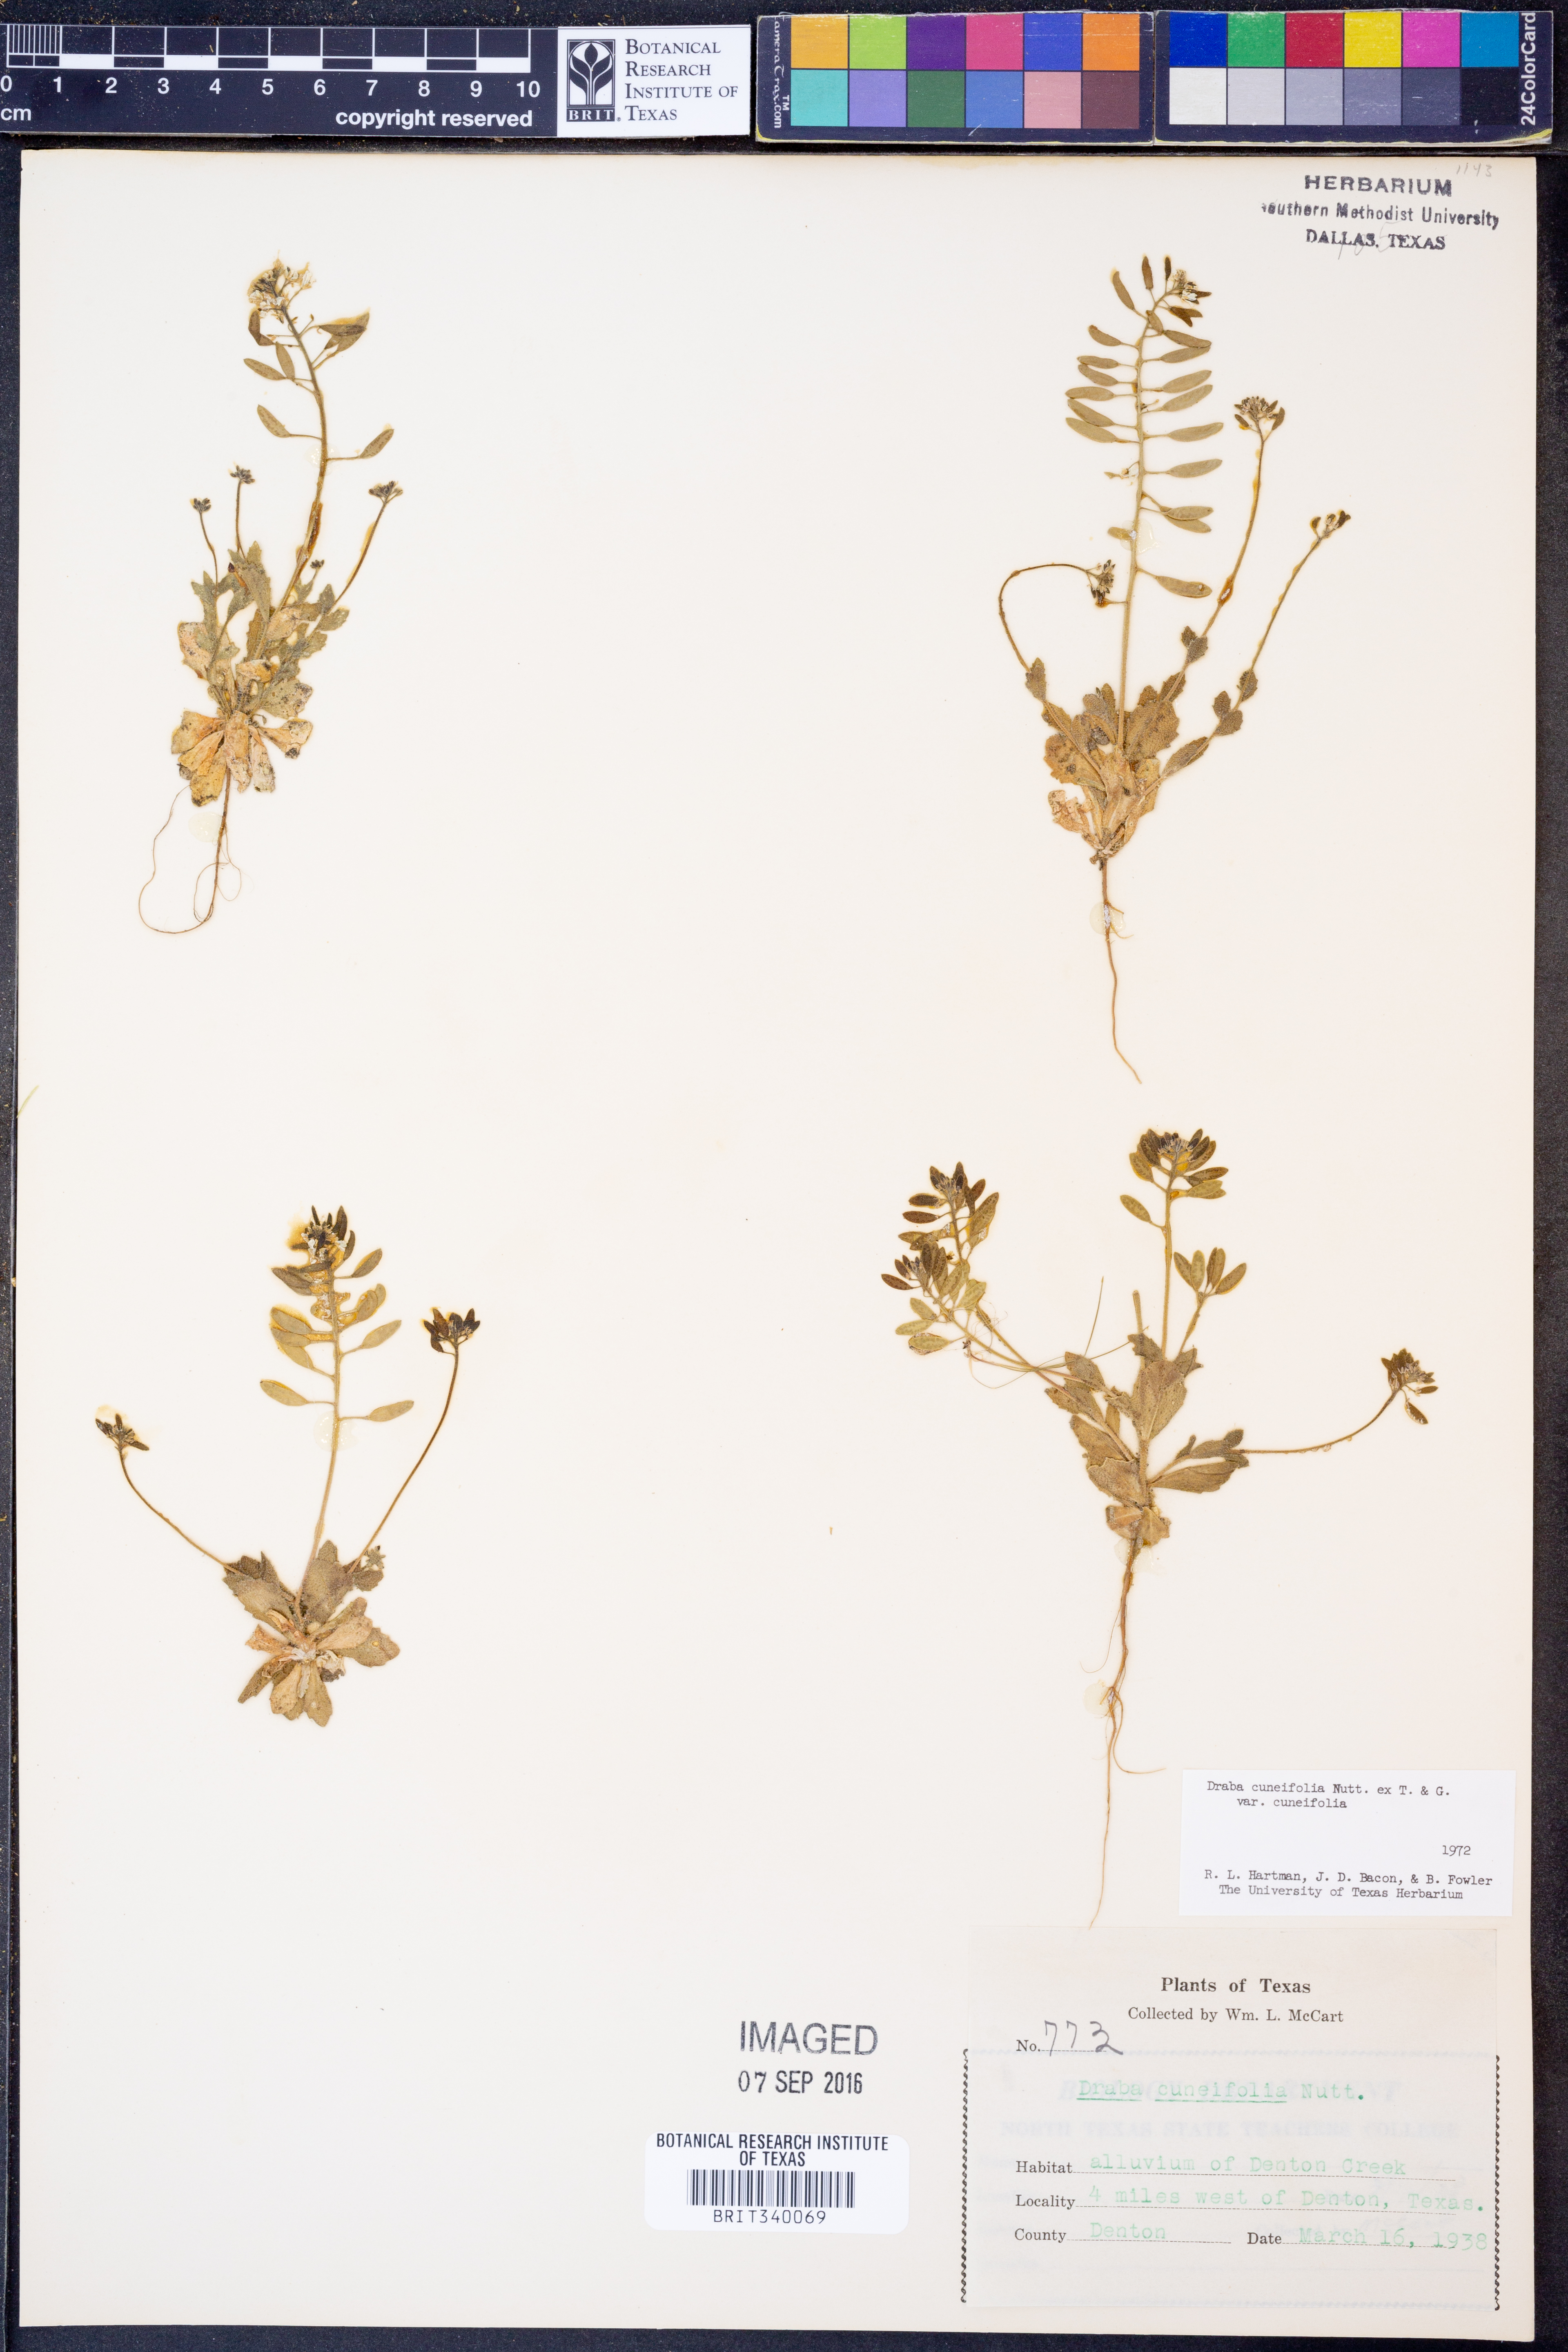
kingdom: Plantae
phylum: Tracheophyta
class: Magnoliopsida
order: Brassicales
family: Brassicaceae
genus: Tomostima
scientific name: Tomostima cuneifolia
